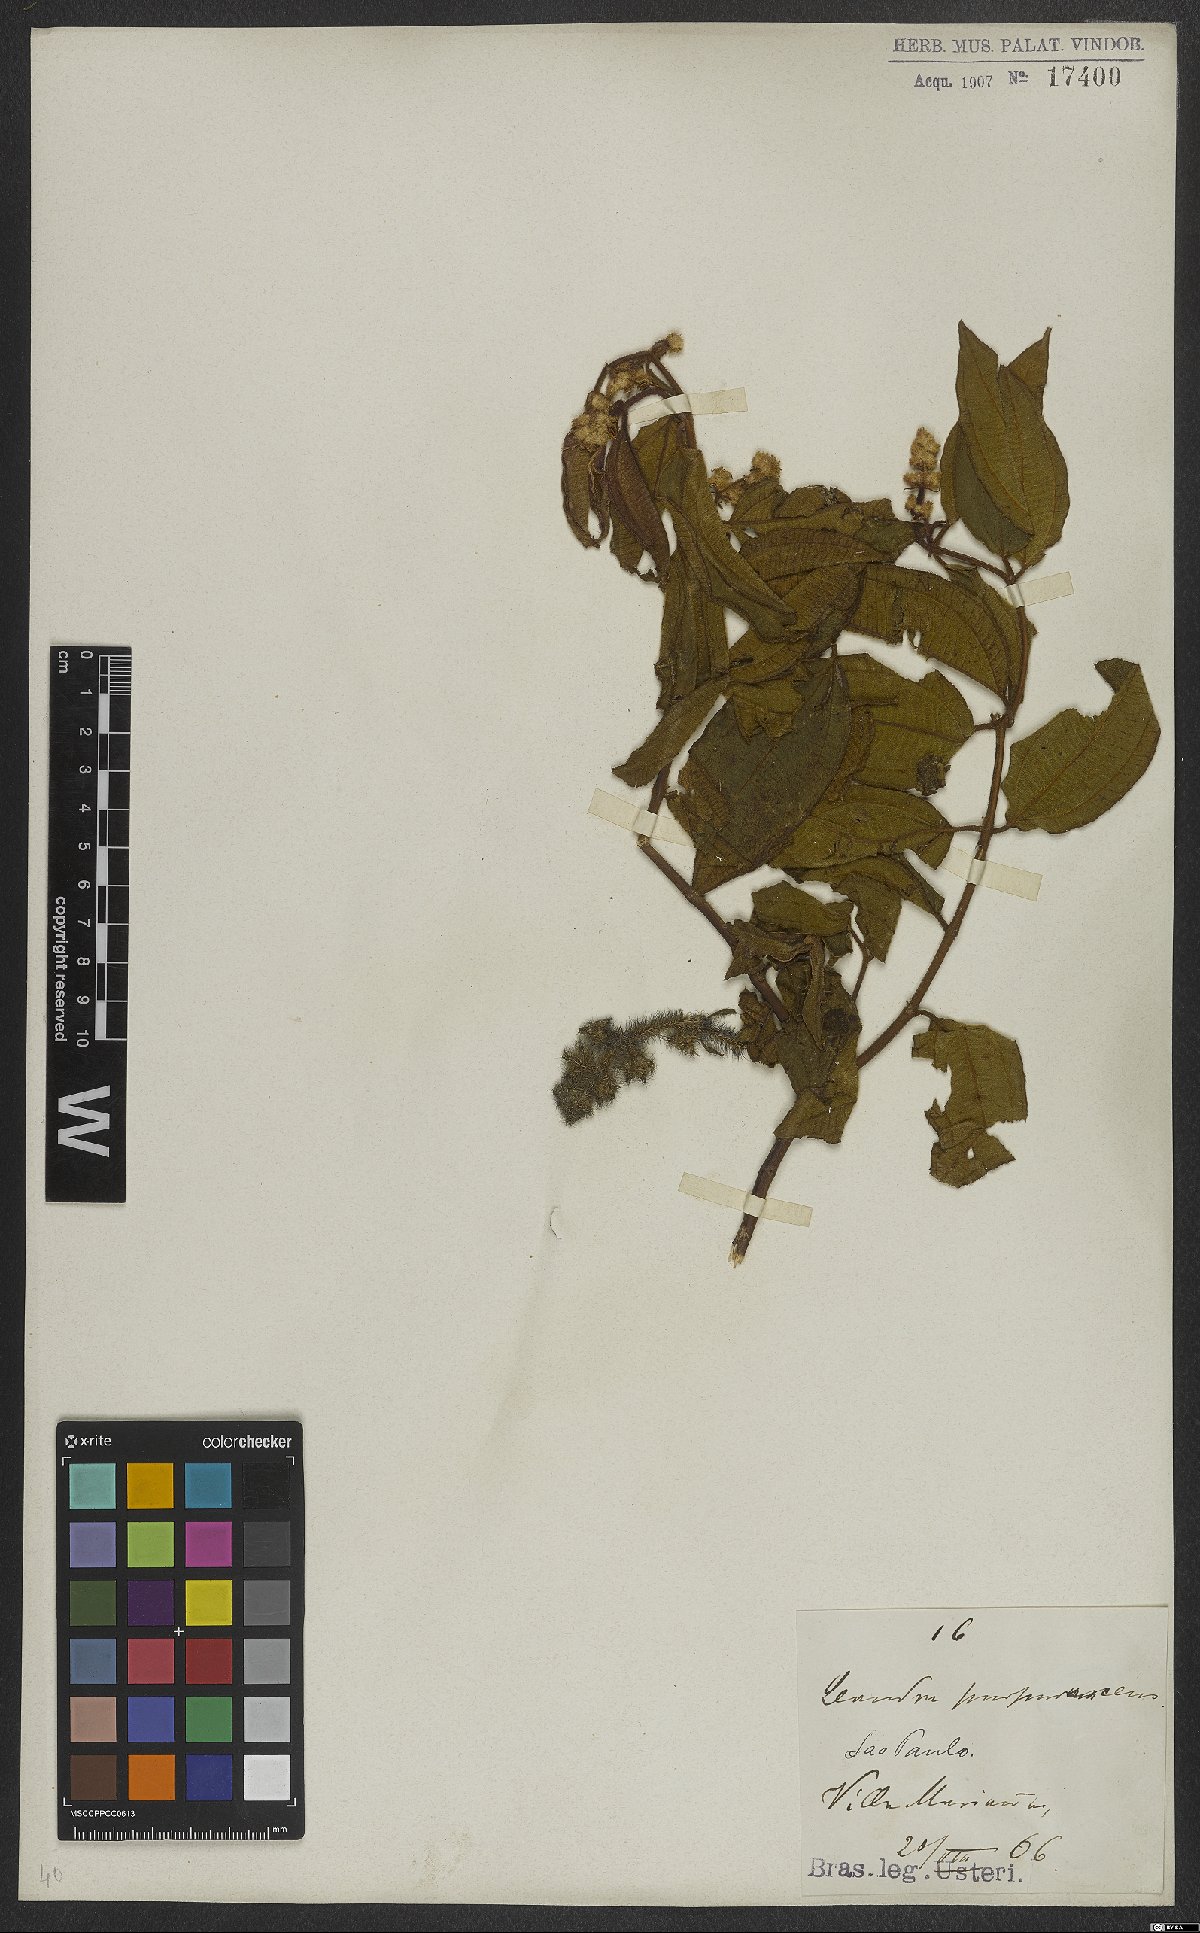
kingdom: Plantae
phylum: Tracheophyta
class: Magnoliopsida
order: Myrtales
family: Melastomataceae
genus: Miconia
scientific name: Miconia microstachya
